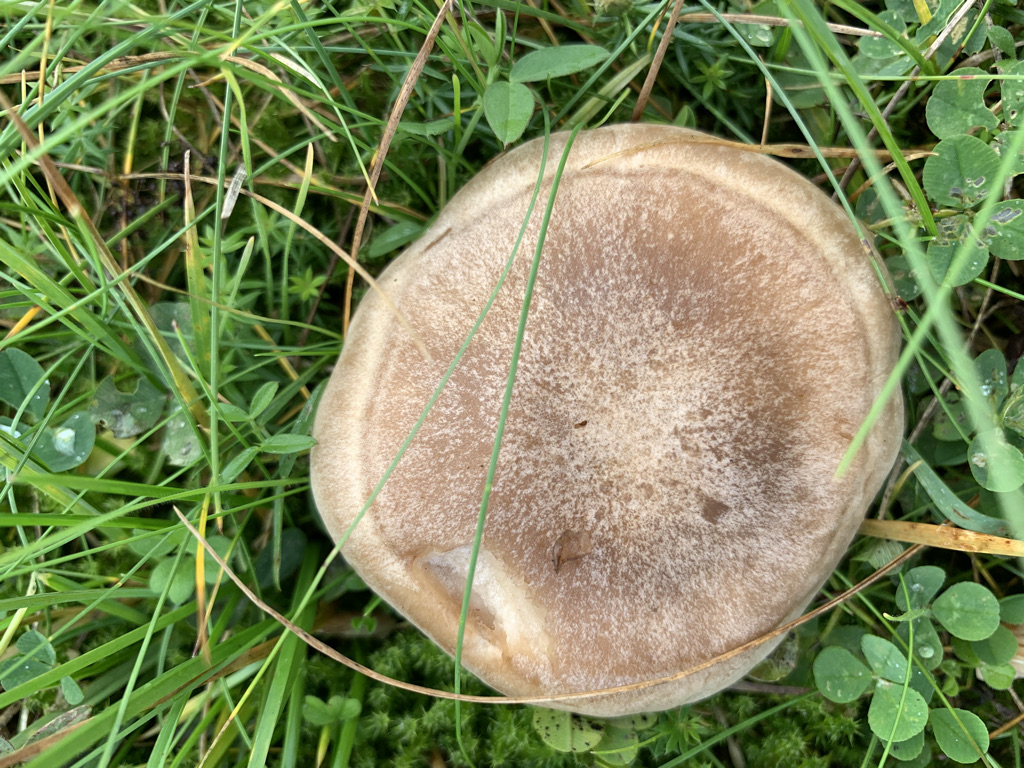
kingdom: Fungi
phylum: Basidiomycota
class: Agaricomycetes
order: Agaricales
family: Tricholomataceae
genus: Lepista
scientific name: Lepista panaeolus
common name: marmoreret hekseringshat
